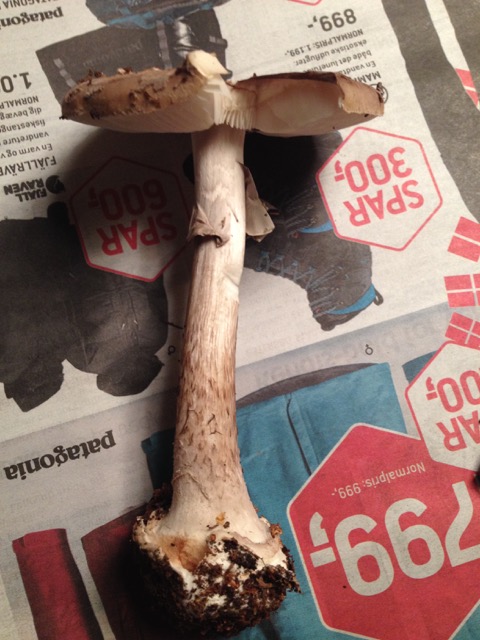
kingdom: Fungi
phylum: Basidiomycota
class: Agaricomycetes
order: Agaricales
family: Amanitaceae
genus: Amanita
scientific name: Amanita porphyria
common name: porfyr-fluesvamp
